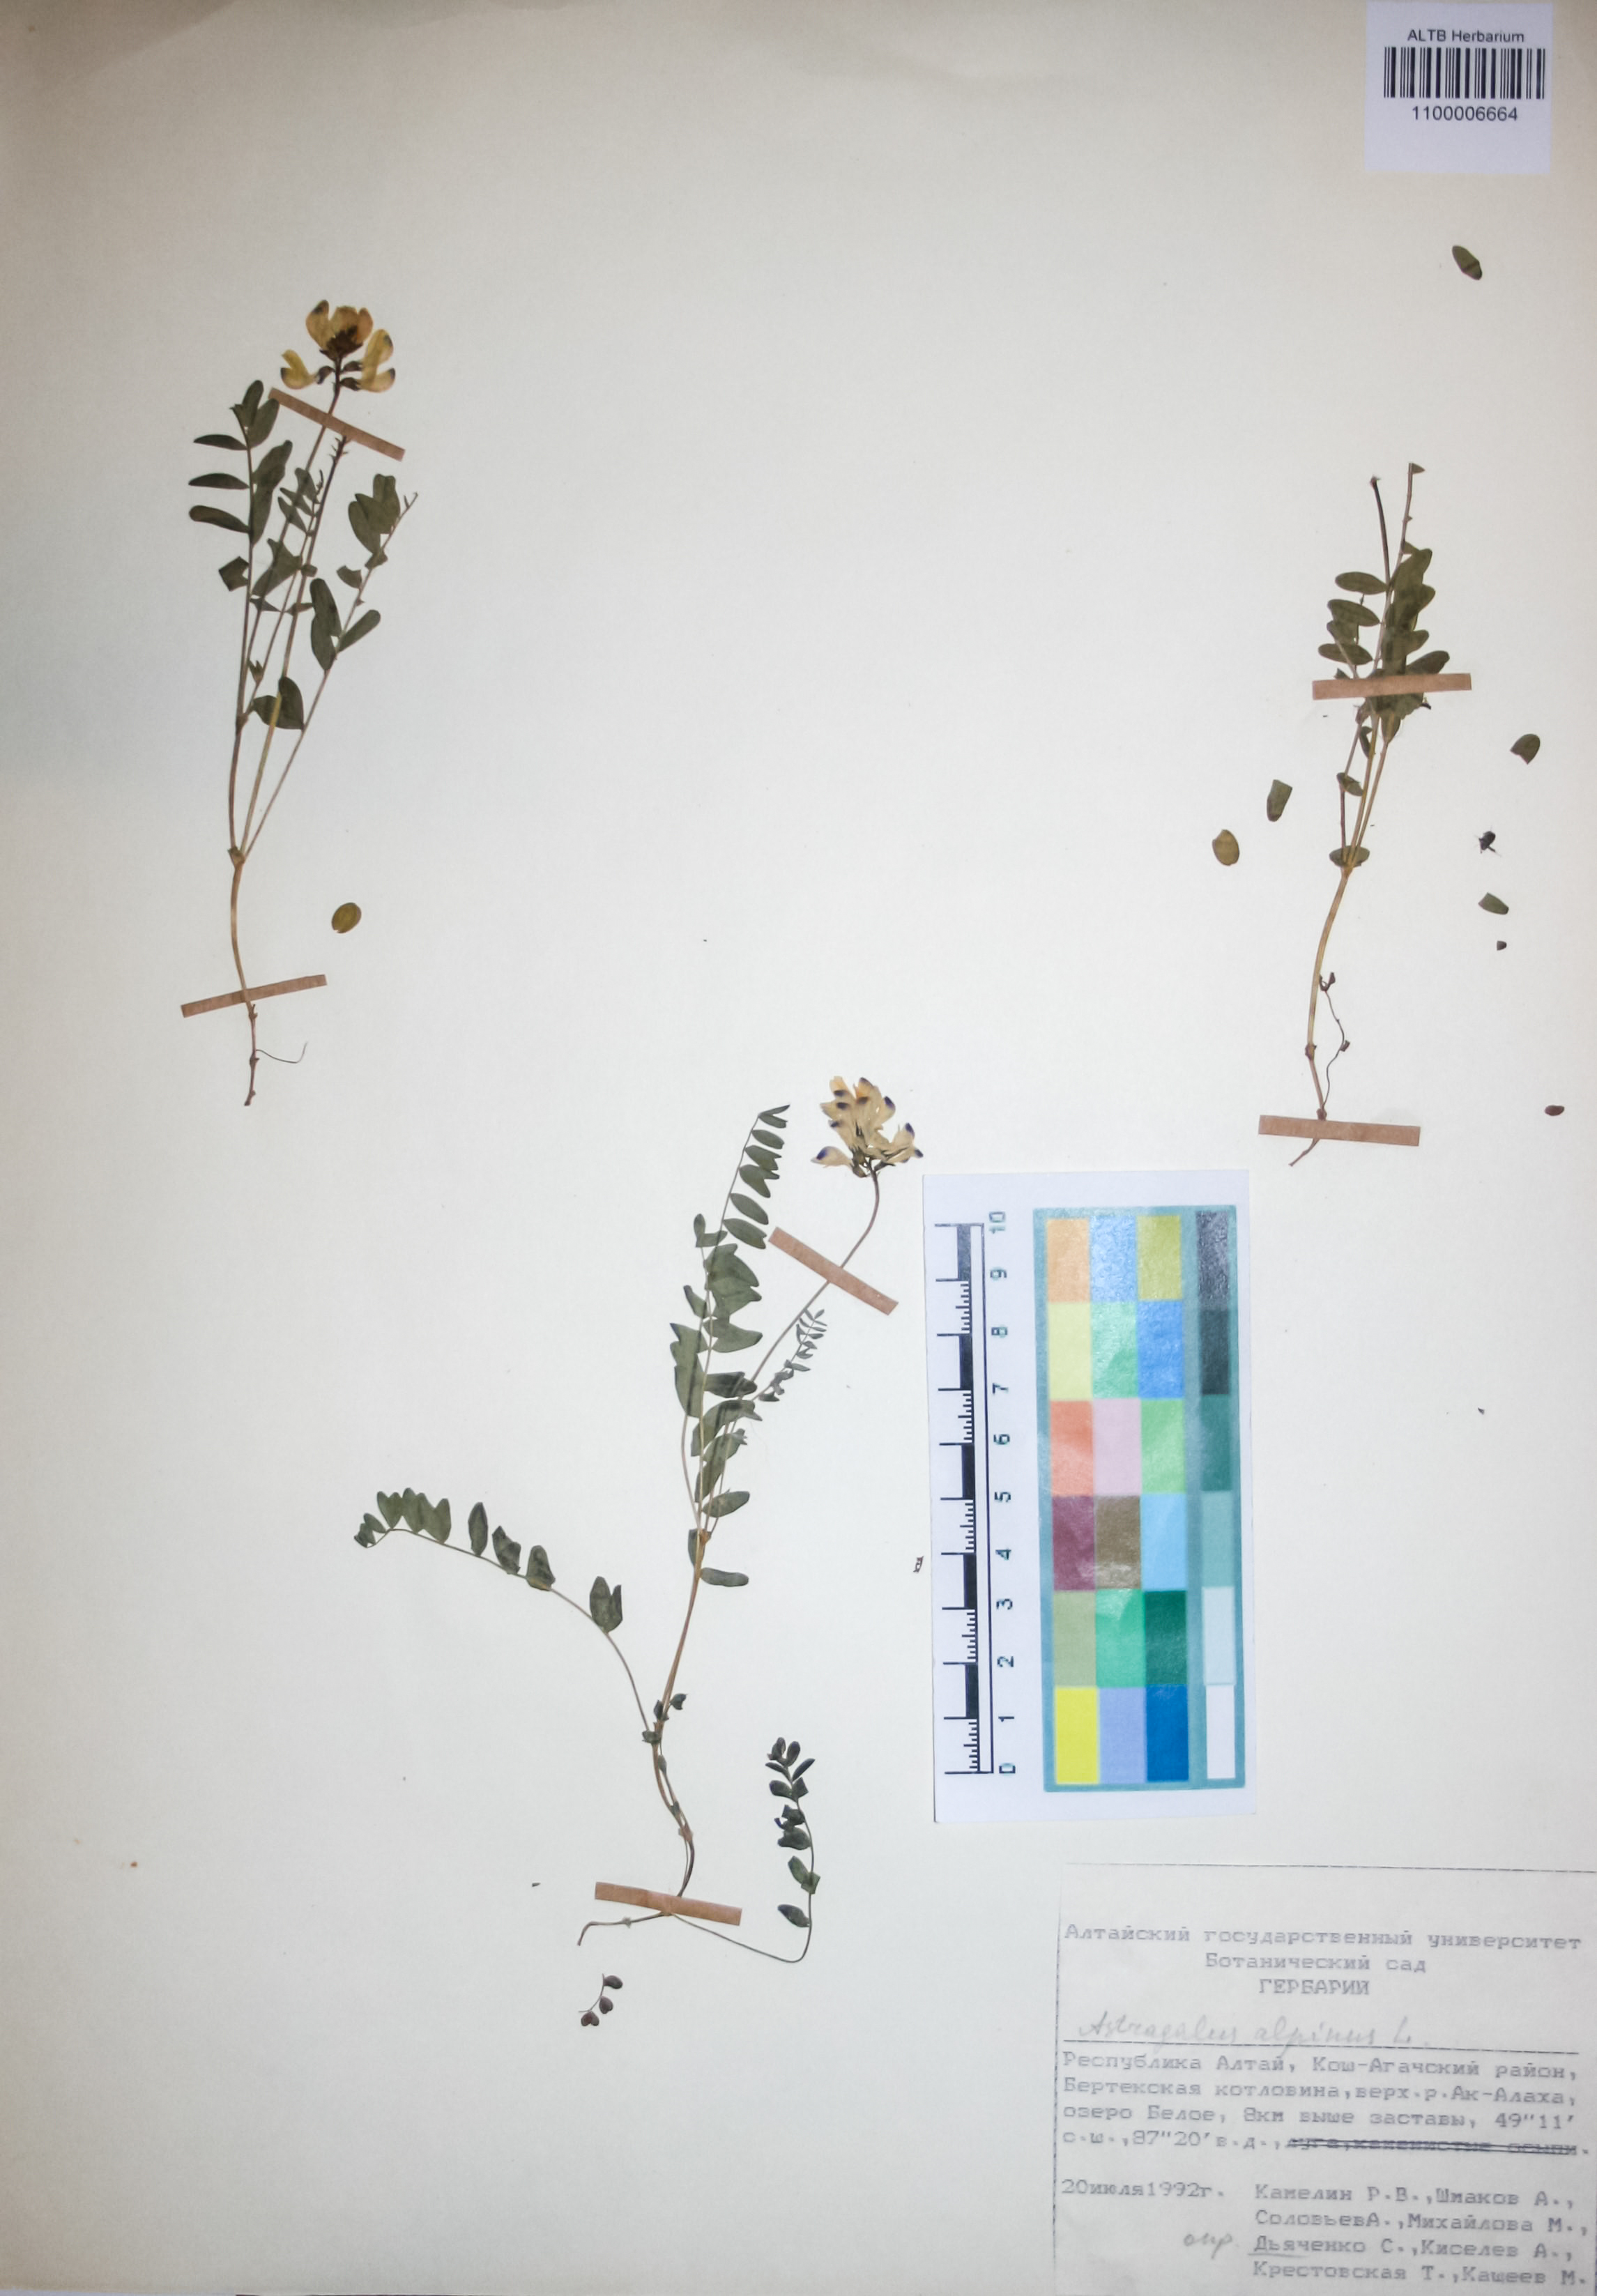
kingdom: Plantae
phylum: Tracheophyta
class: Magnoliopsida
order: Fabales
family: Fabaceae
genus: Astragalus
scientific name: Astragalus alpinus
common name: Alpine milk-vetch
